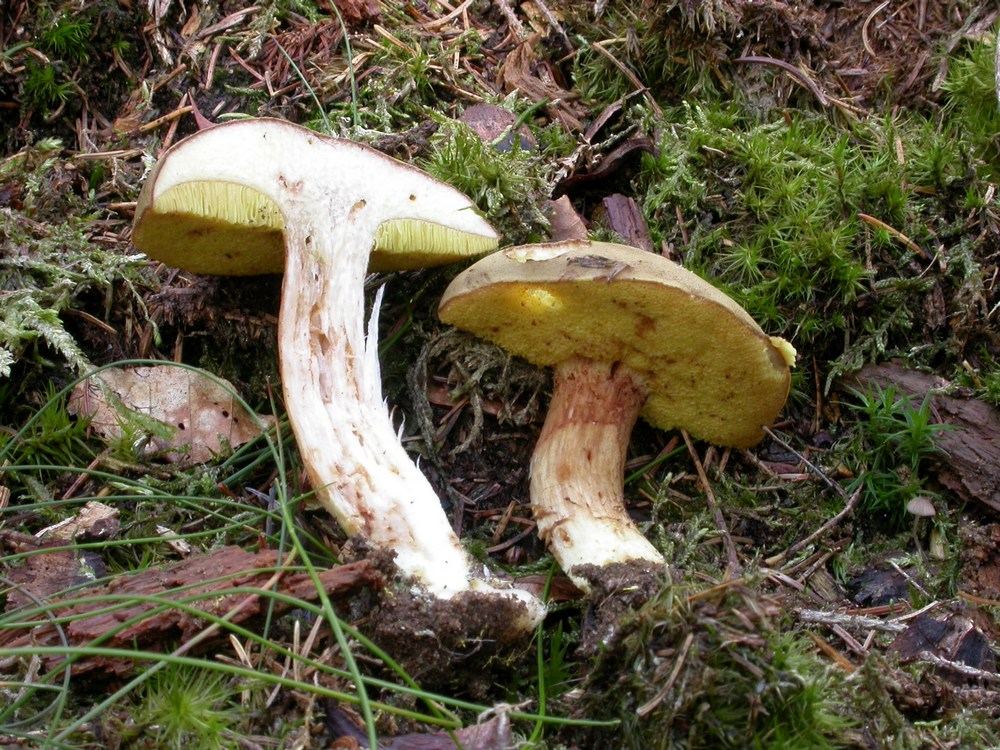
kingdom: Fungi
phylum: Basidiomycota
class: Agaricomycetes
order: Boletales
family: Boletaceae
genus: Xerocomus
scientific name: Xerocomus ferrugineus
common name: vaskeskinds-rørhat
